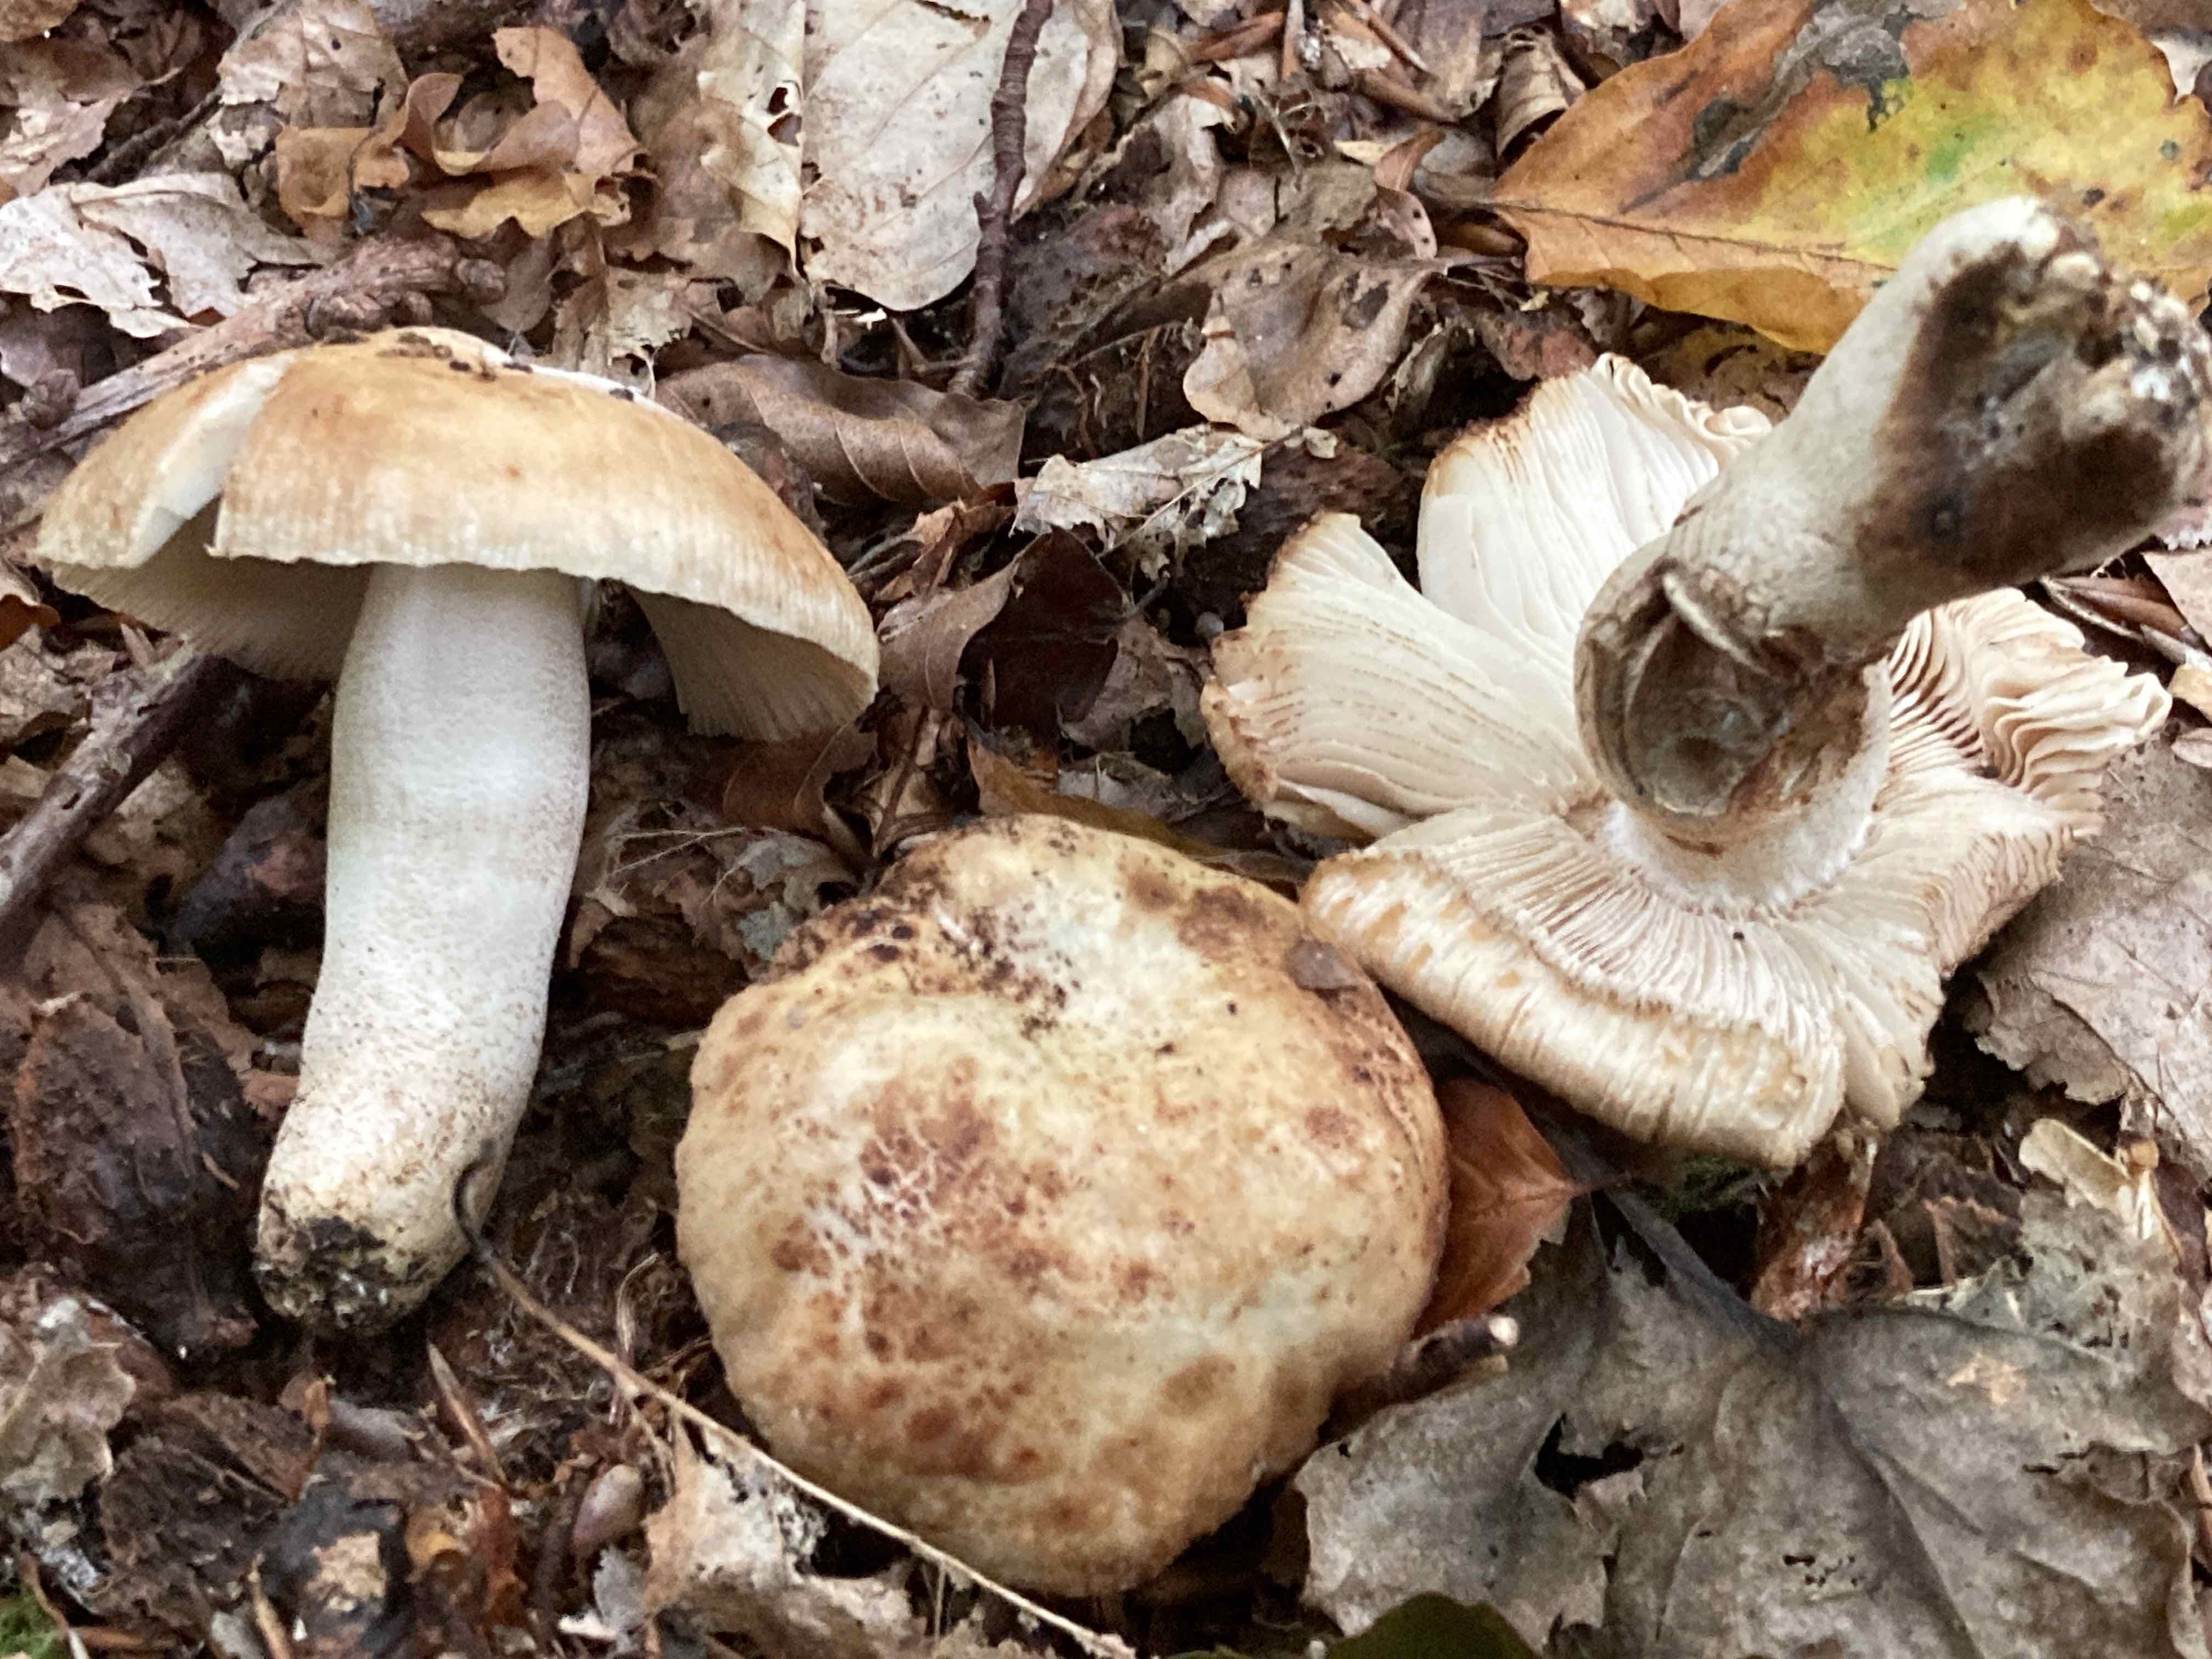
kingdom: Fungi
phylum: Basidiomycota
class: Agaricomycetes
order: Russulales
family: Russulaceae
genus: Russula
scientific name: Russula grata
